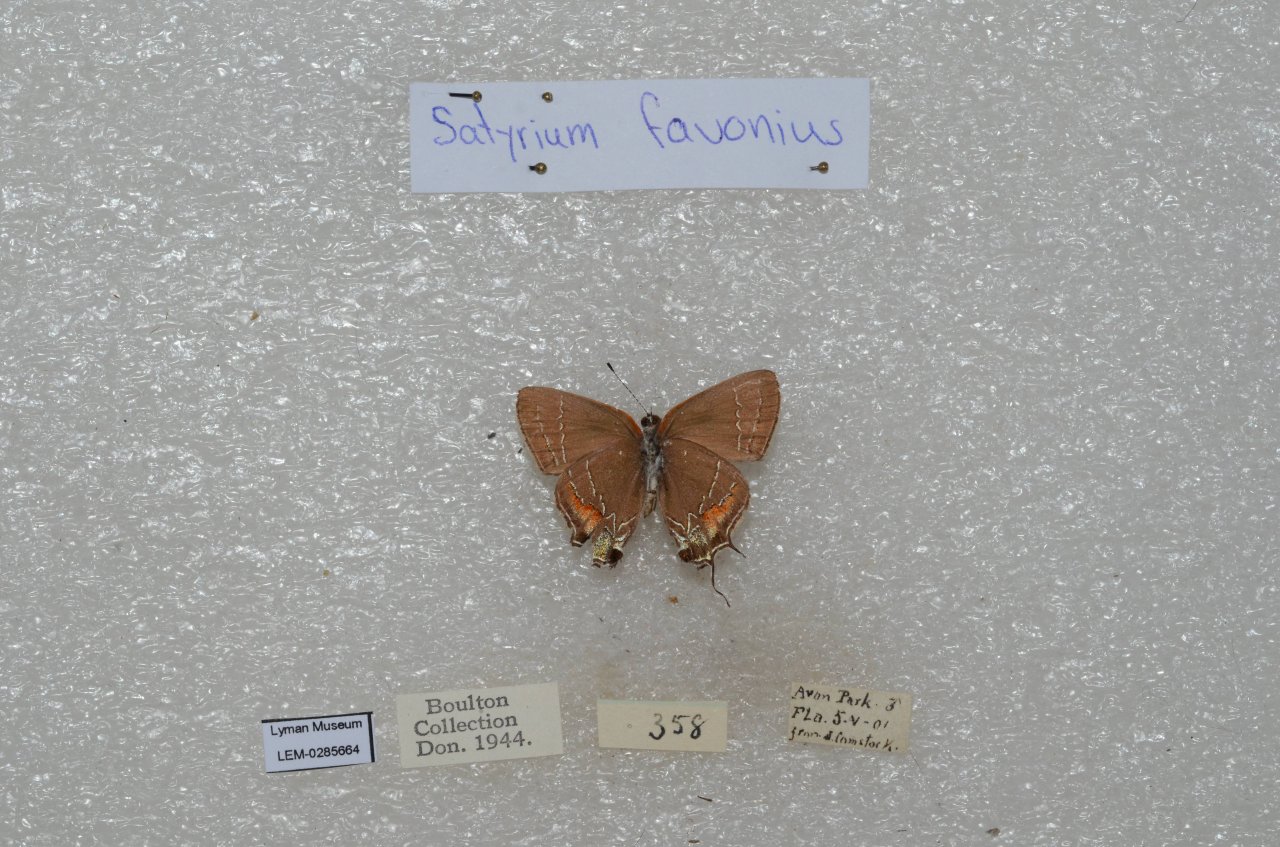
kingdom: Animalia
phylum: Arthropoda
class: Insecta
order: Lepidoptera
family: Lycaenidae
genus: Fixsenia
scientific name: Fixsenia favonius
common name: Oak Hairstreak
